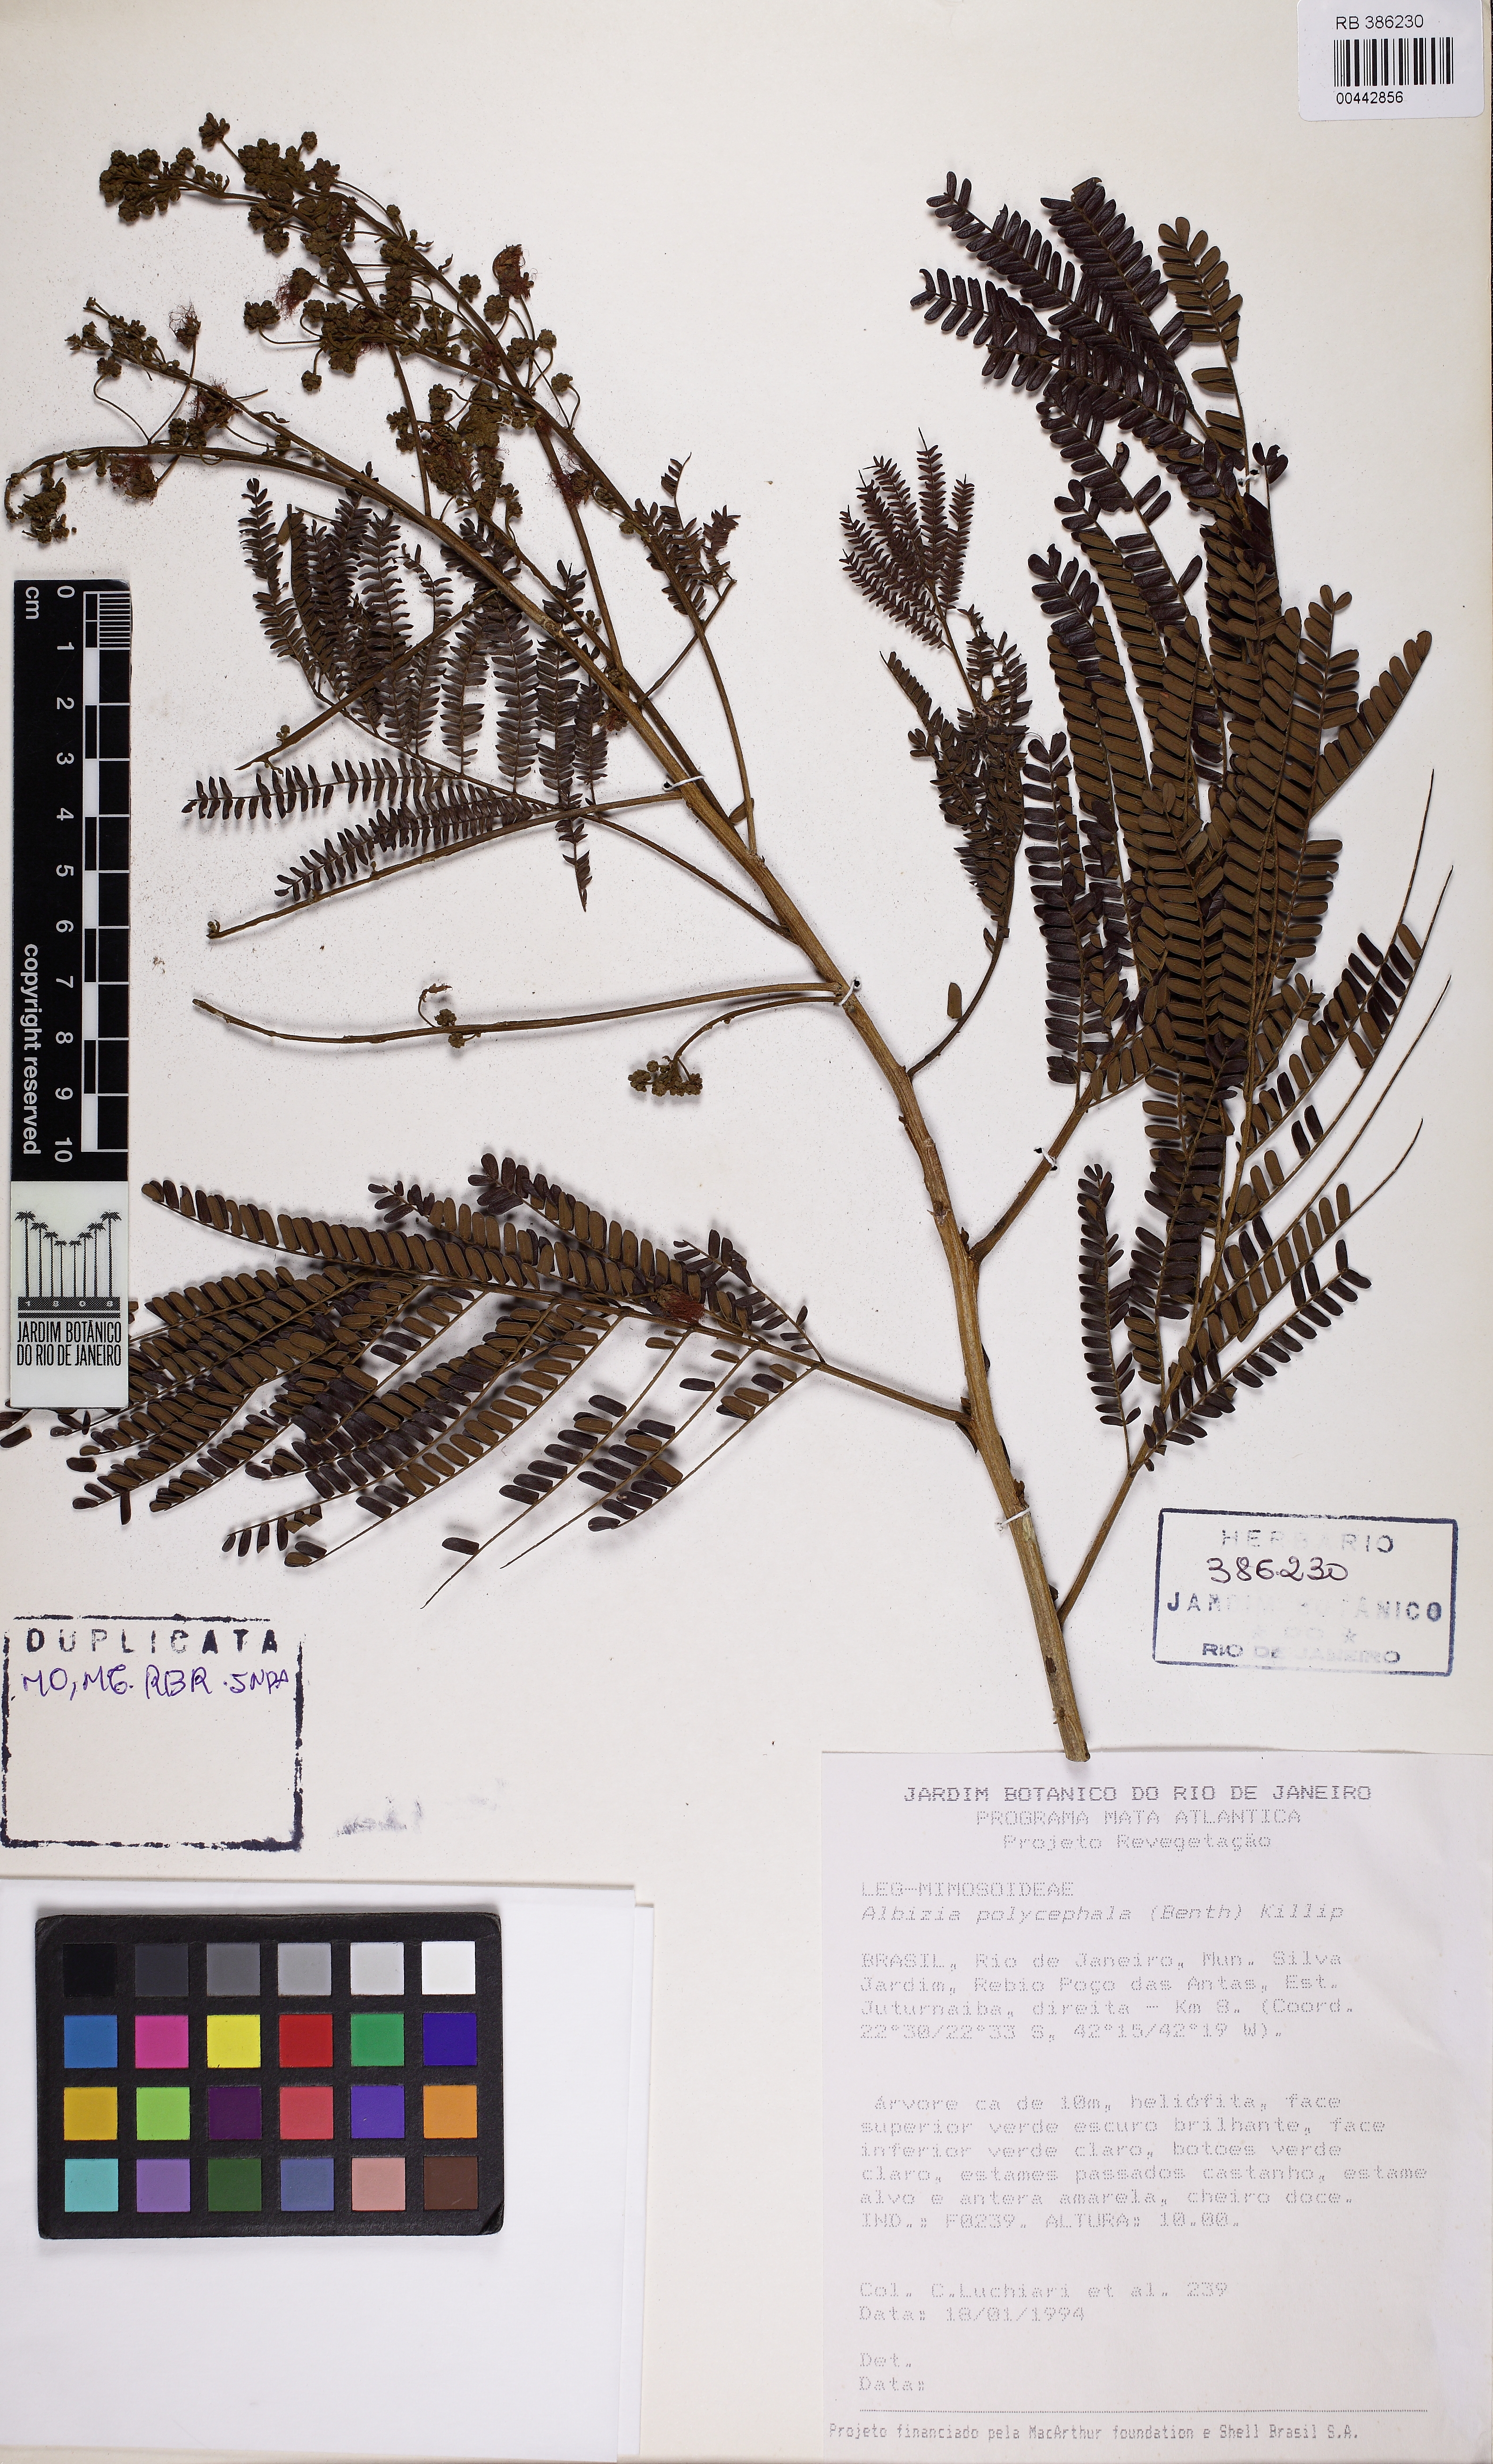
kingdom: Plantae
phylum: Tracheophyta
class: Magnoliopsida
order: Fabales
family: Fabaceae
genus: Albizia
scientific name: Albizia polycephala
